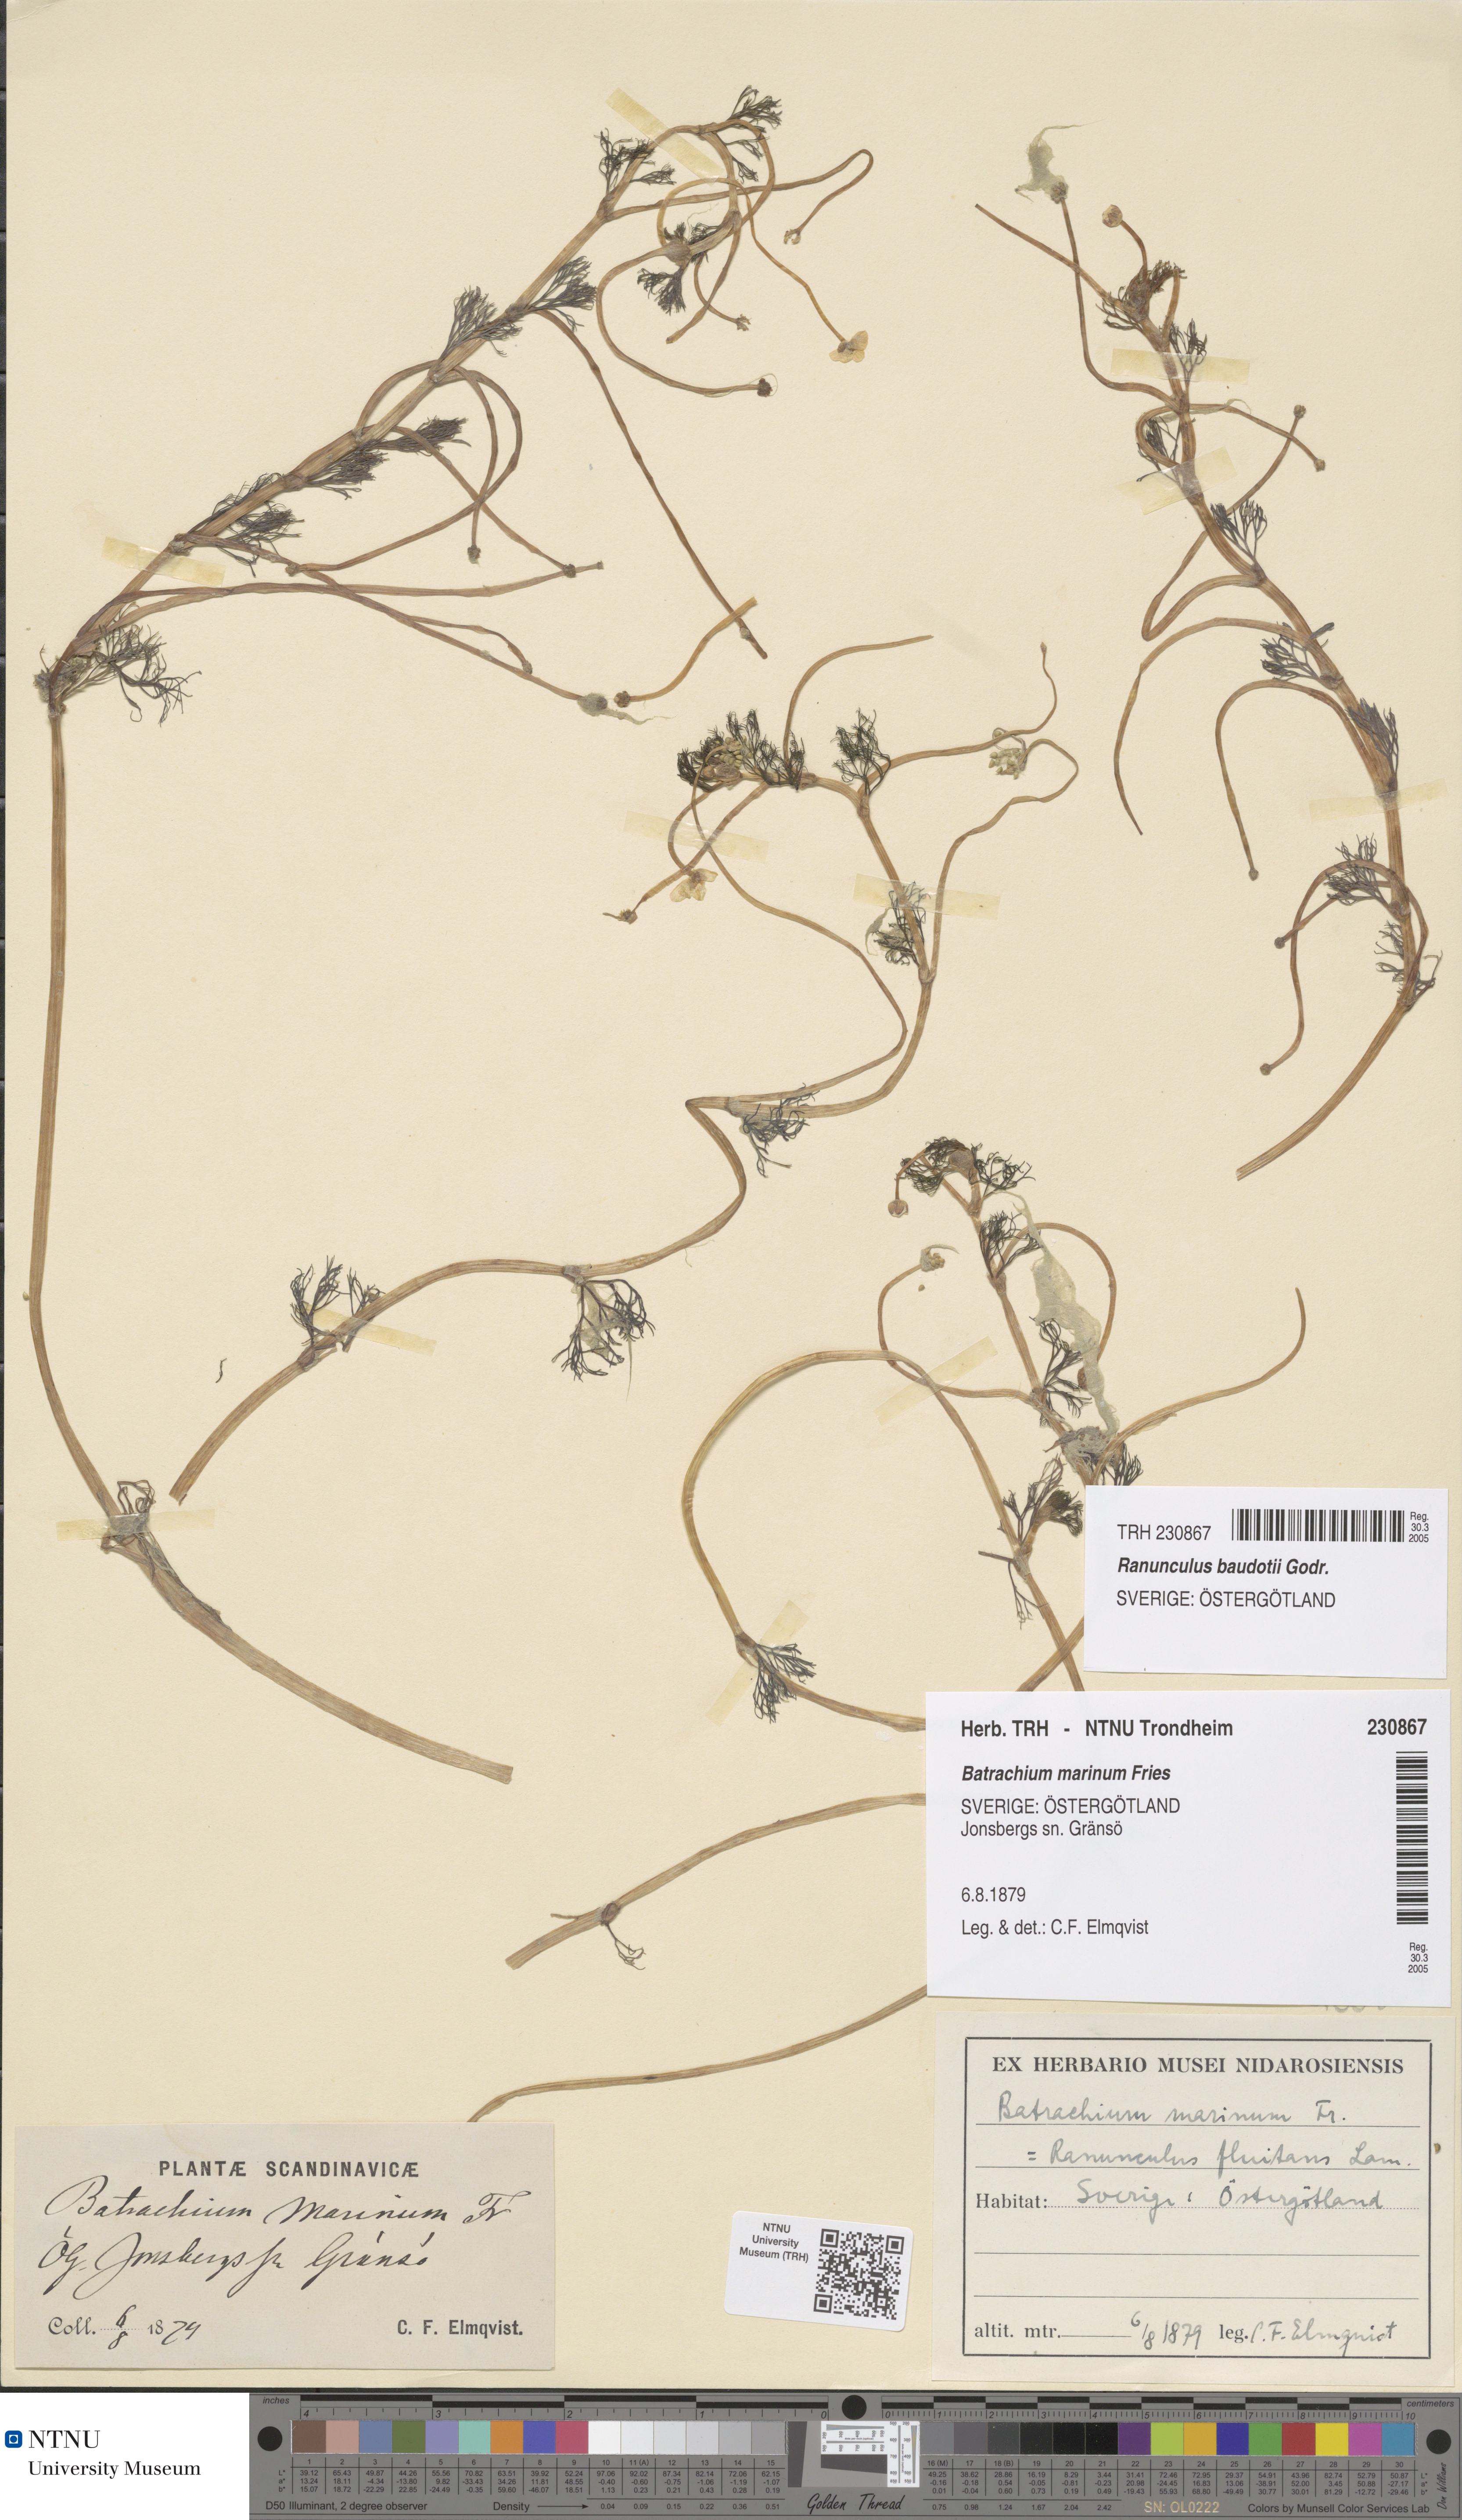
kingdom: Plantae
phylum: Tracheophyta
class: Magnoliopsida
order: Ranunculales
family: Ranunculaceae
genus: Ranunculus
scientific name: Ranunculus peltatus
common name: Pond water-crowfoot
